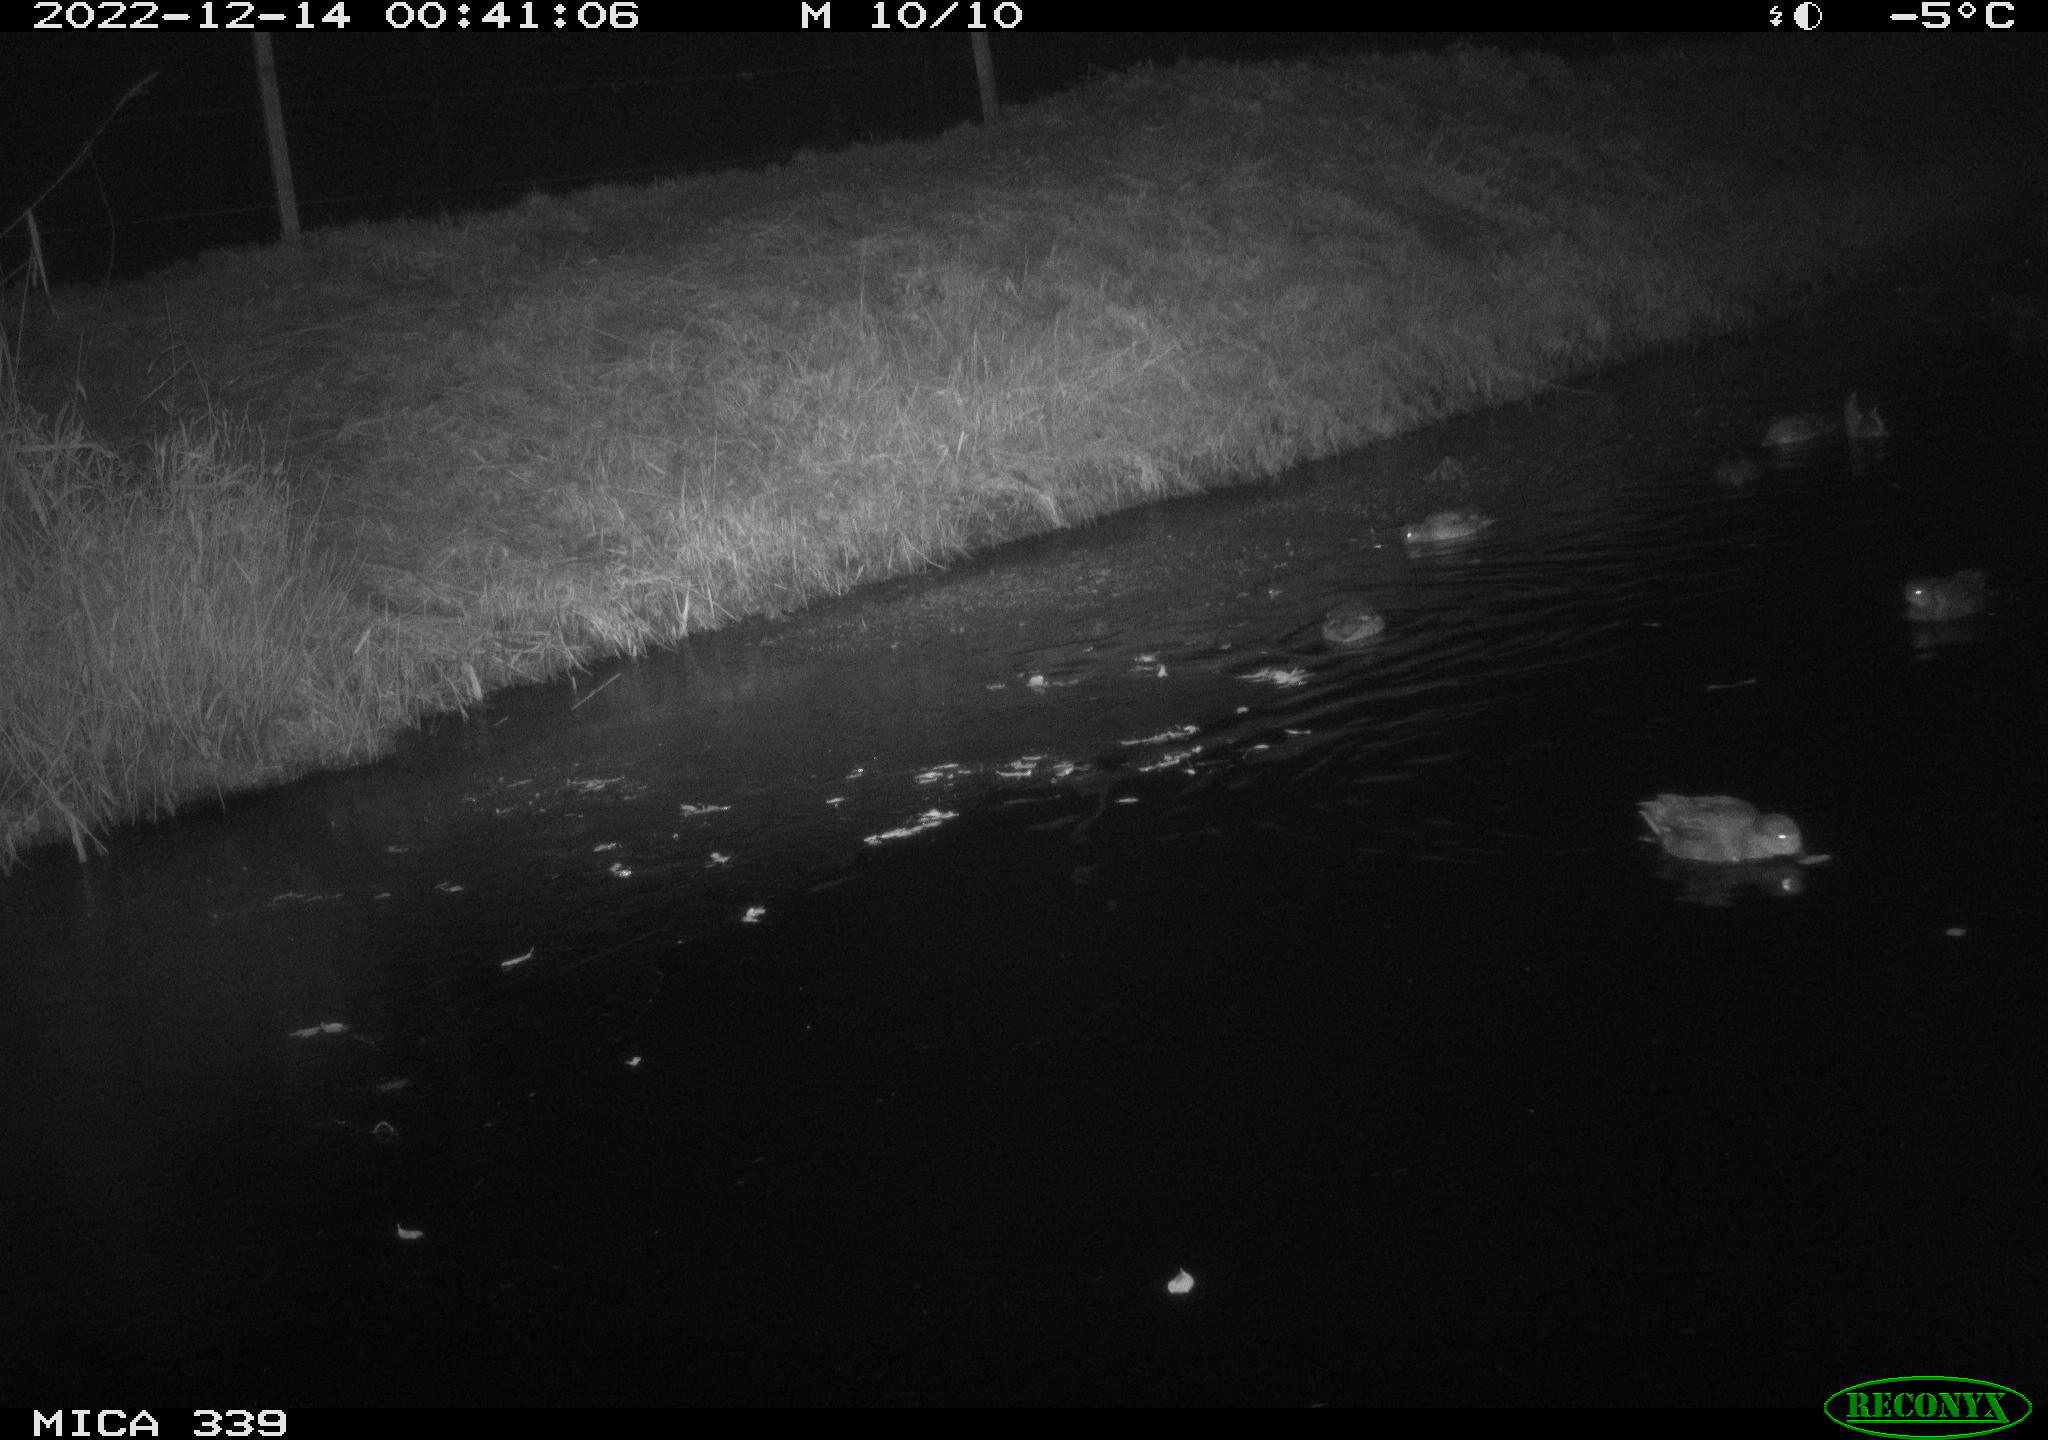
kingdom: Animalia
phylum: Chordata
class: Aves
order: Anseriformes
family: Anatidae
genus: Anas
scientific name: Anas
